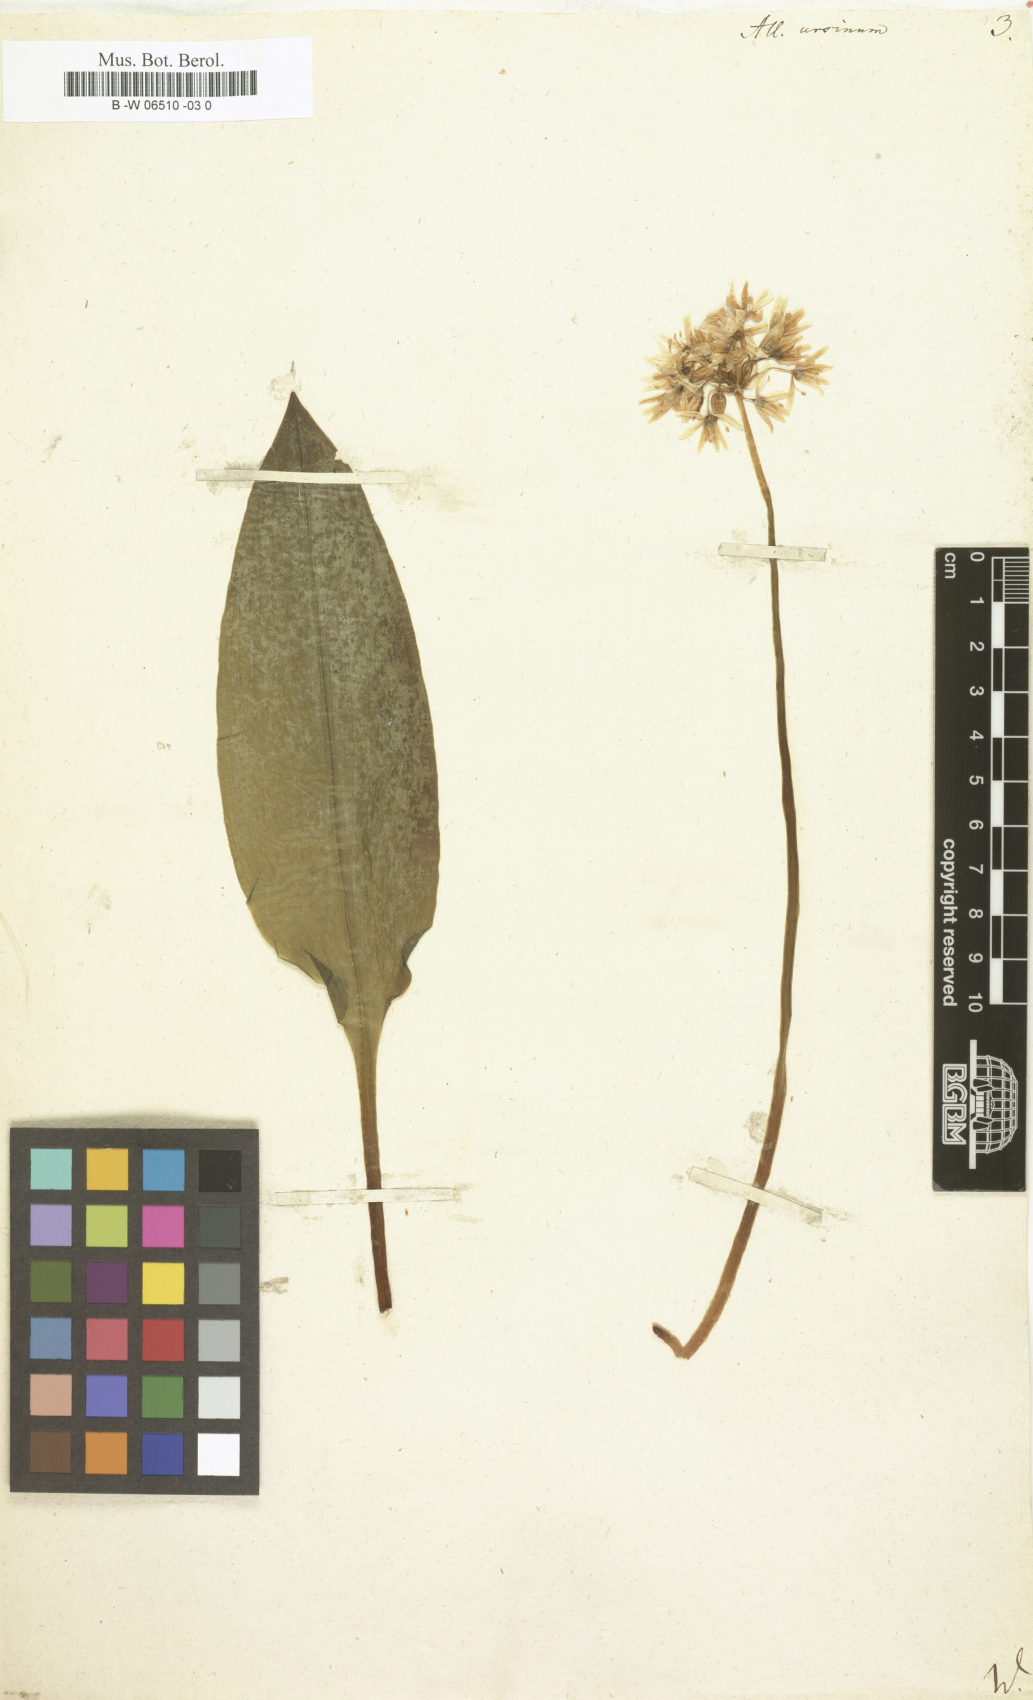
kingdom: Plantae
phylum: Tracheophyta
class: Liliopsida
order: Asparagales
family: Amaryllidaceae
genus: Allium
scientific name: Allium ursinum
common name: Ramsons
